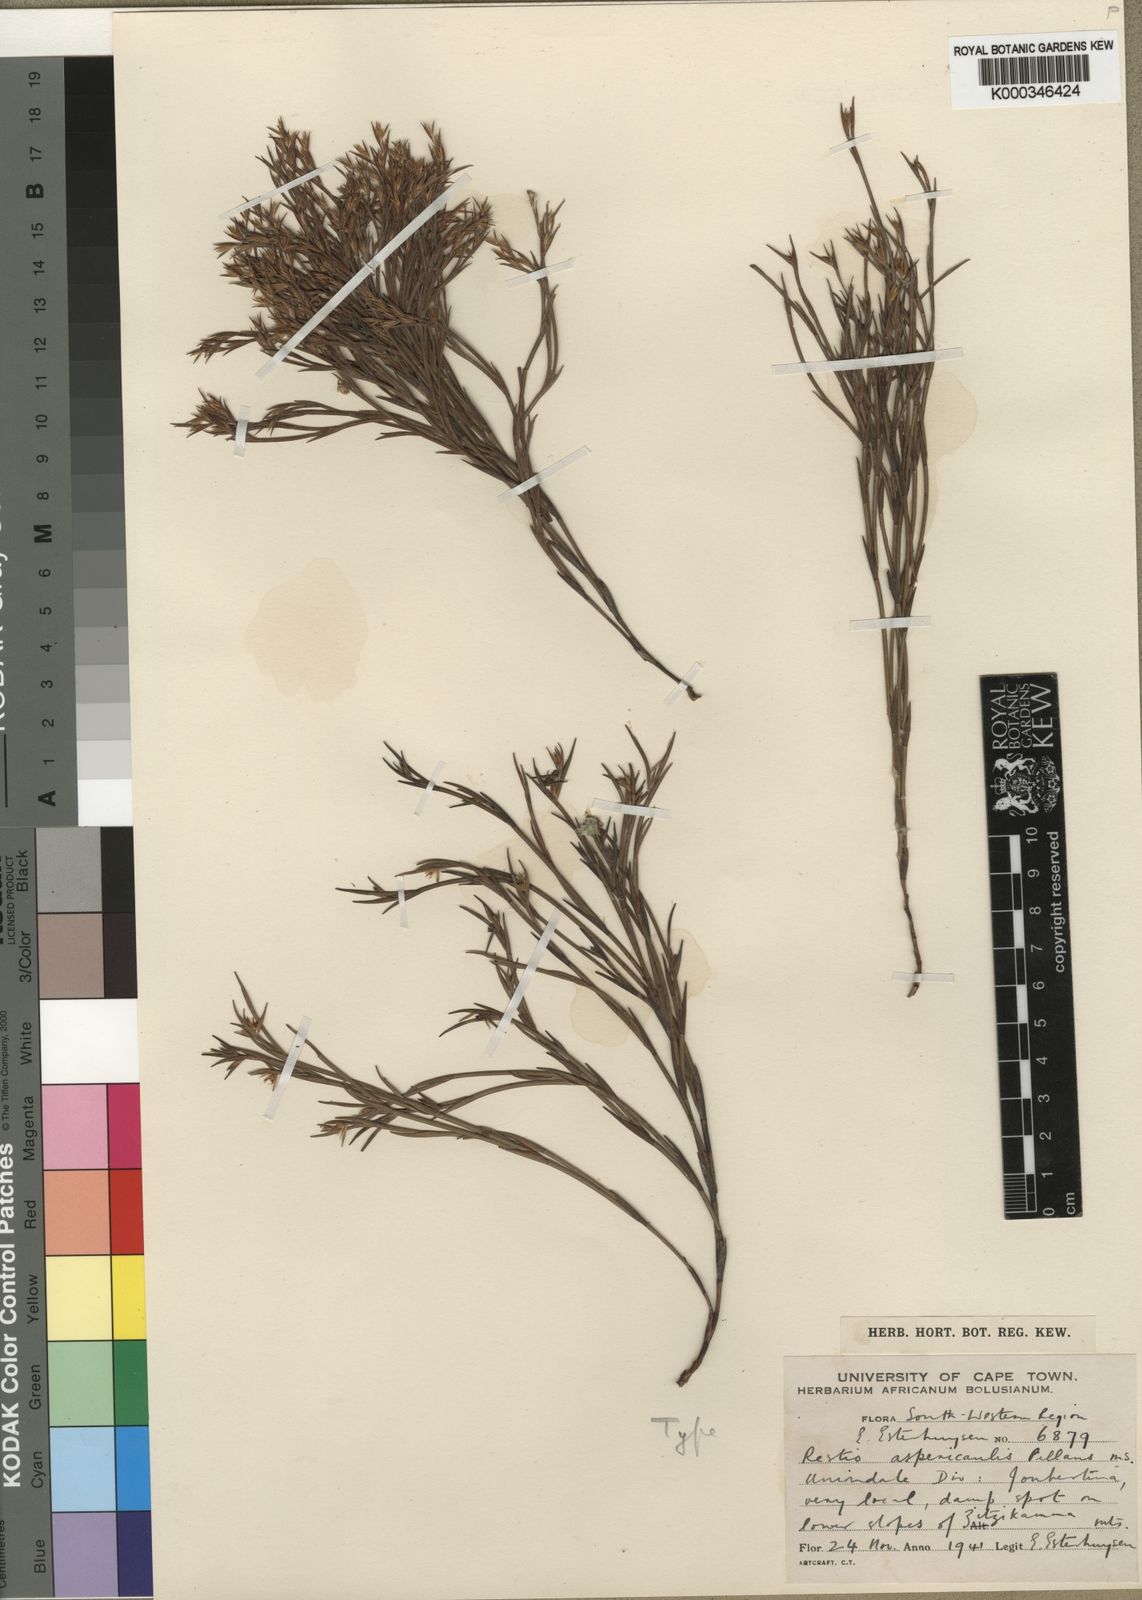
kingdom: Plantae
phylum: Tracheophyta
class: Liliopsida
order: Poales
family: Restionaceae
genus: Platycaulos
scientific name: Platycaulos anceps
